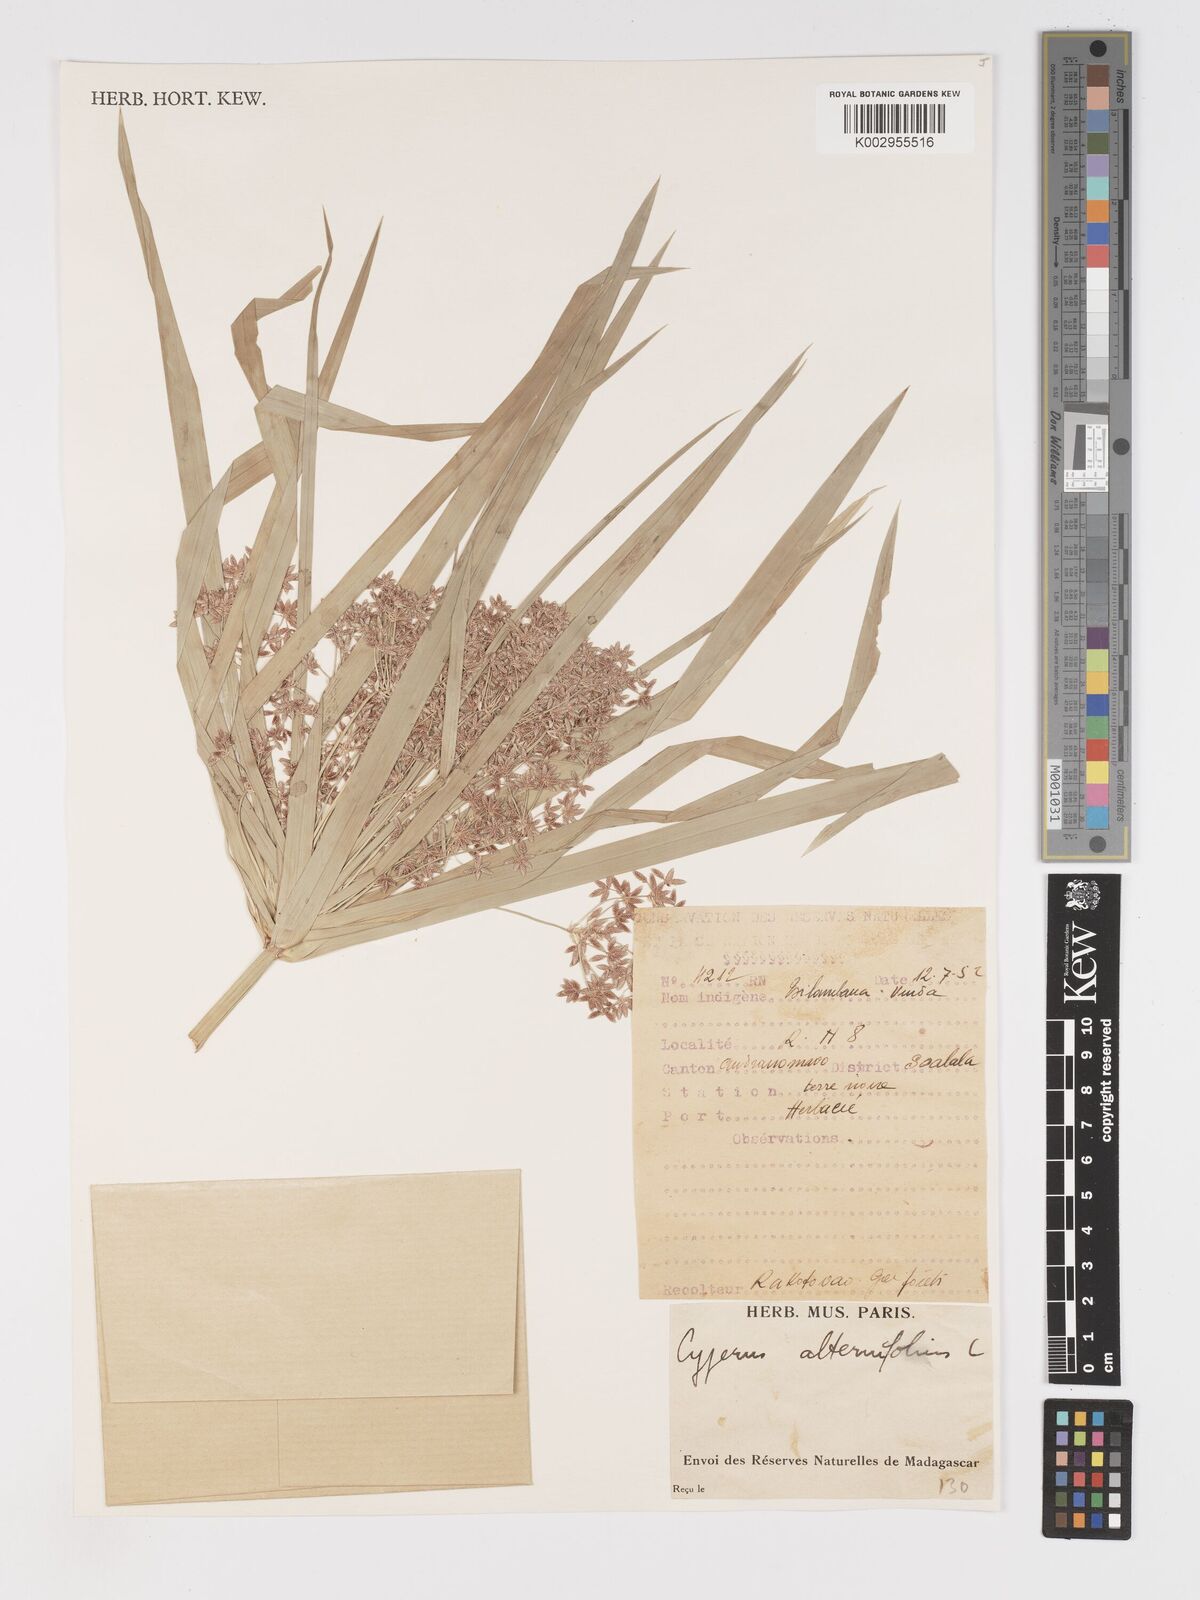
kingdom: Plantae
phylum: Tracheophyta
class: Liliopsida
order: Poales
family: Cyperaceae
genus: Cyperus
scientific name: Cyperus alternifolius
